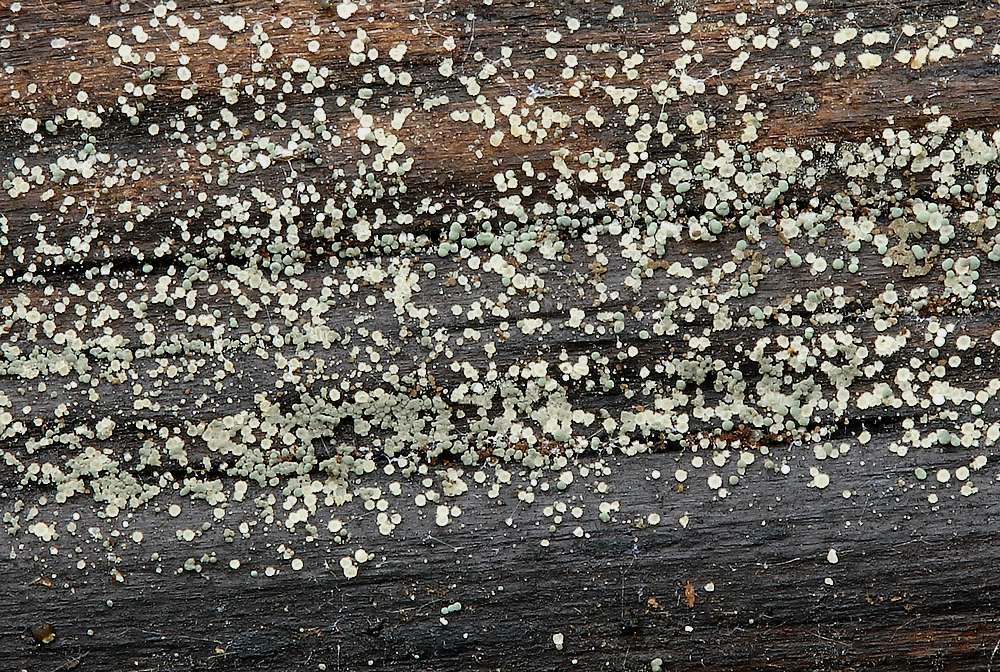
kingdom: Fungi
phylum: Ascomycota
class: Leotiomycetes
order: Helotiales
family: Hyaloscyphaceae
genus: Hyaloscypha
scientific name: Hyaloscypha leucostigma
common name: hvid klarskive
